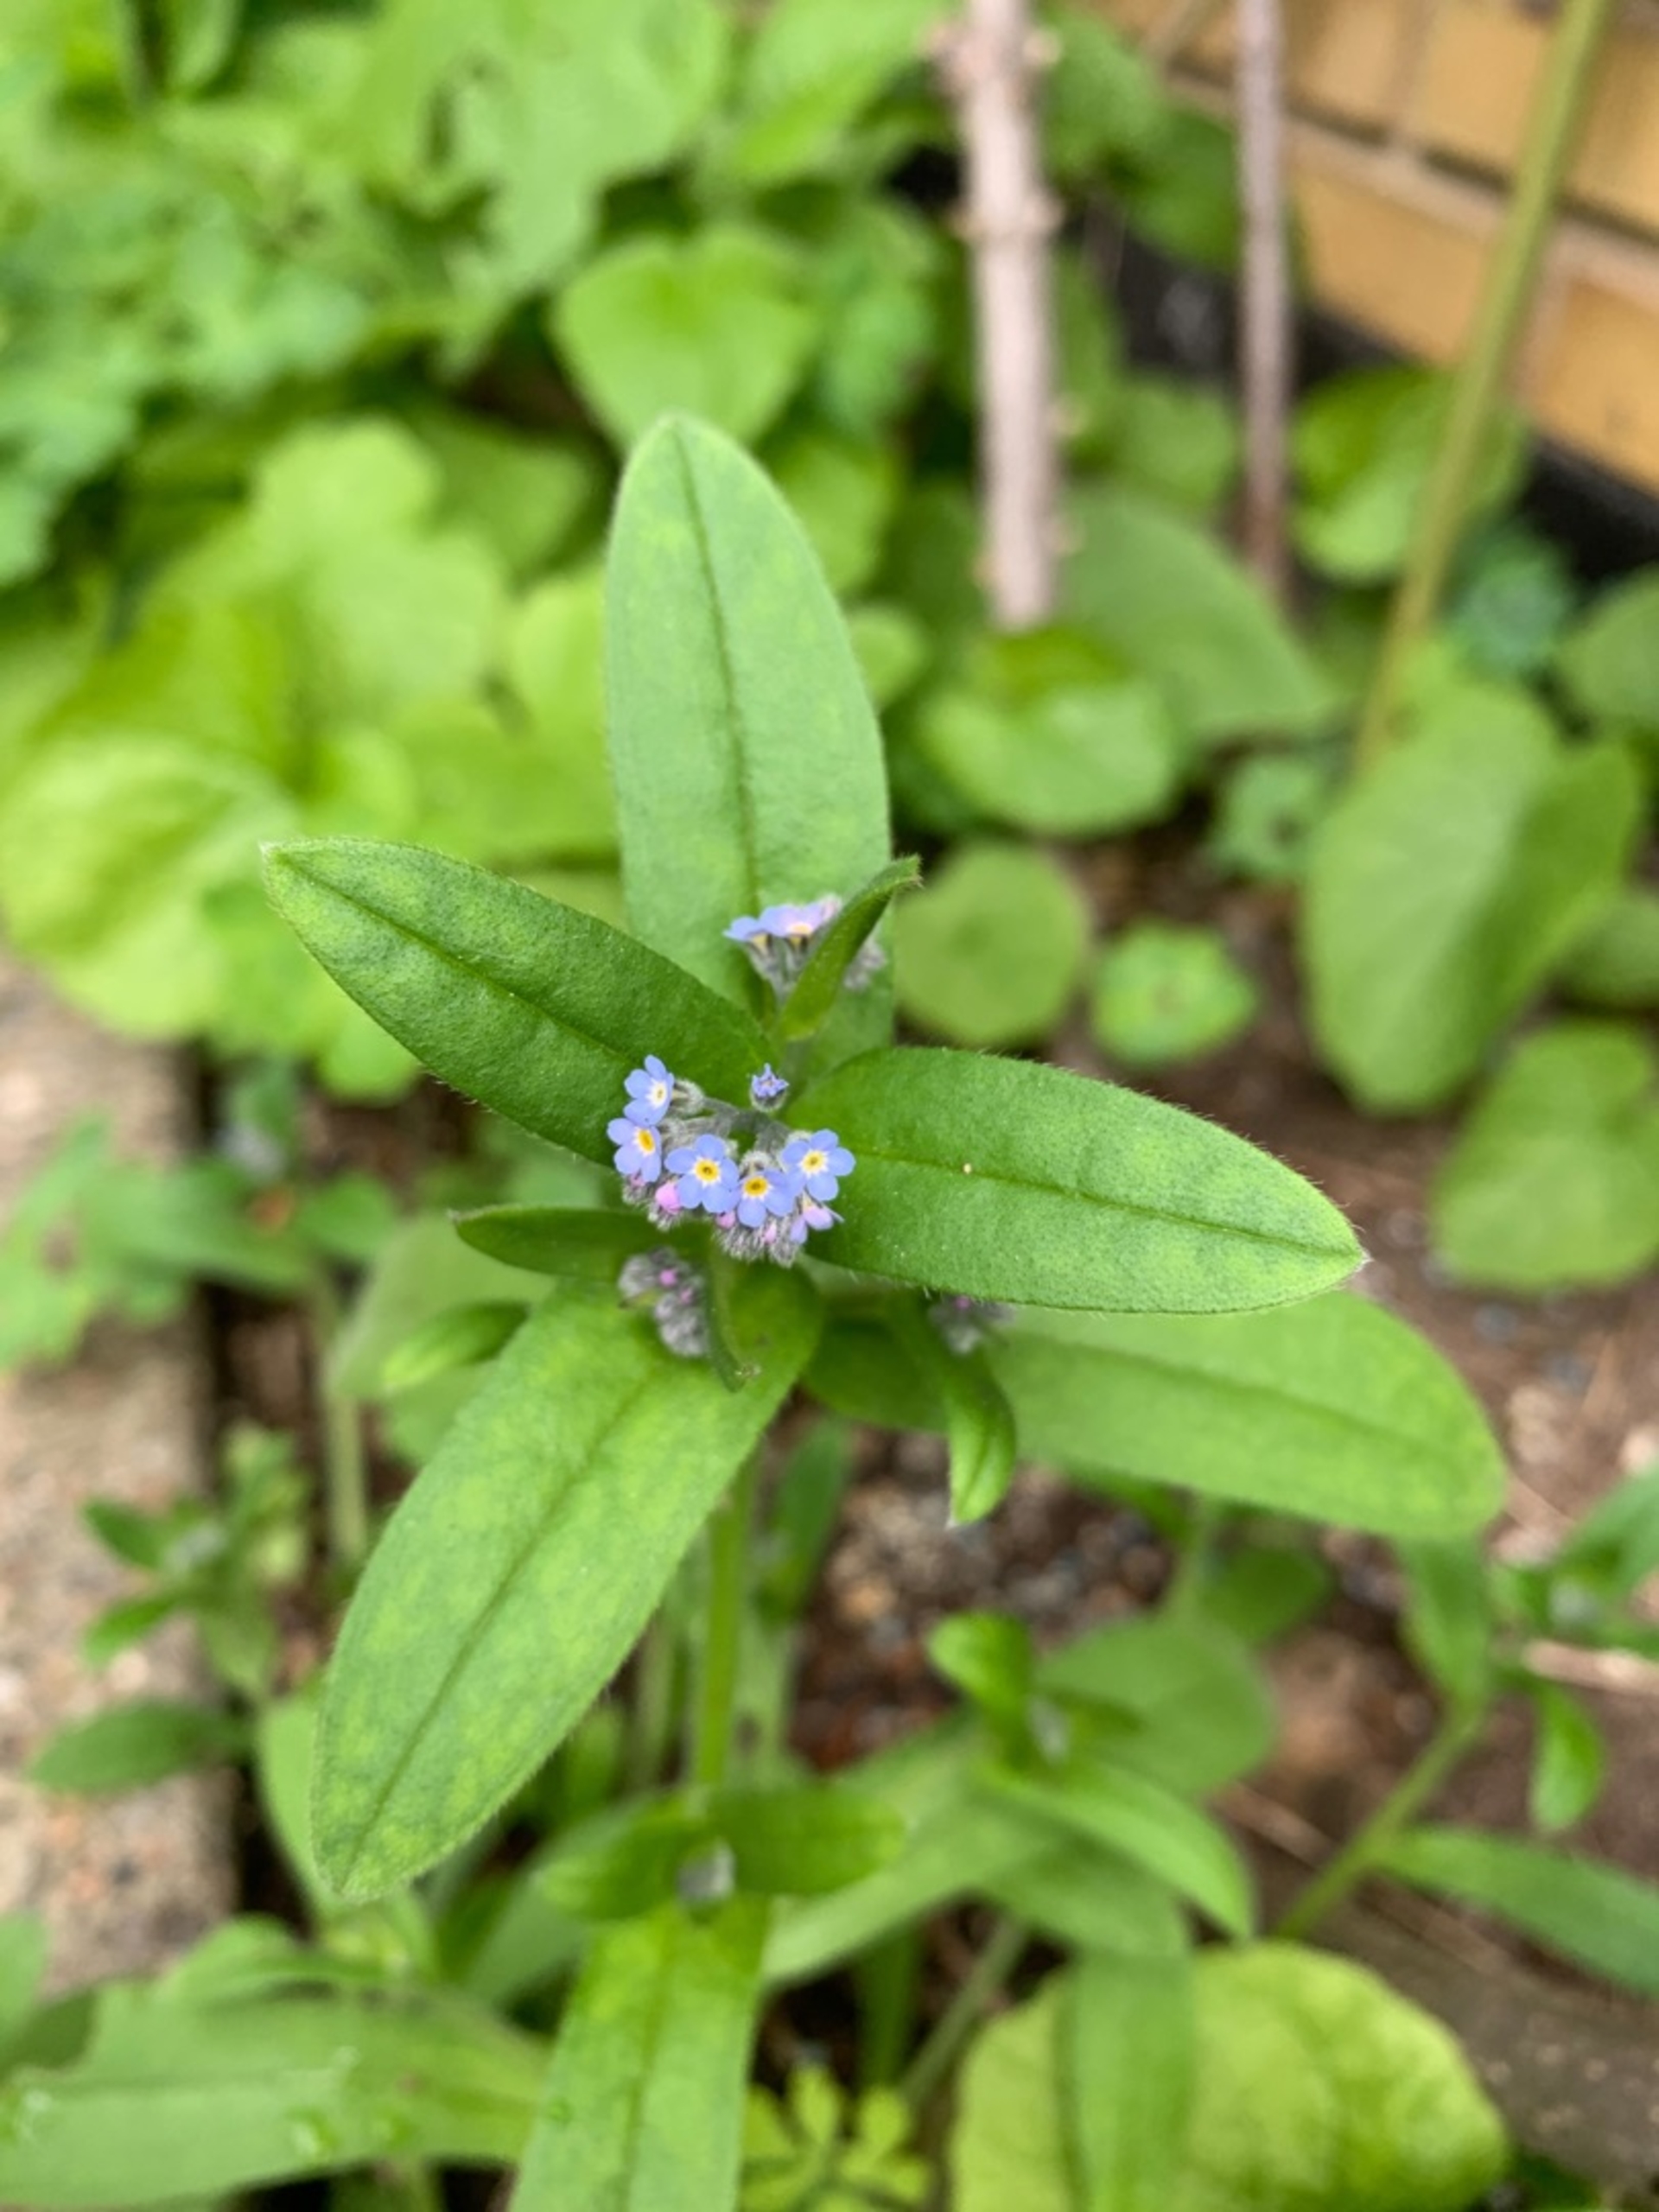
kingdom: Plantae
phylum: Tracheophyta
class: Magnoliopsida
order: Boraginales
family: Boraginaceae
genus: Myosotis
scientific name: Myosotis sylvatica
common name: Skov-forglemmigej
